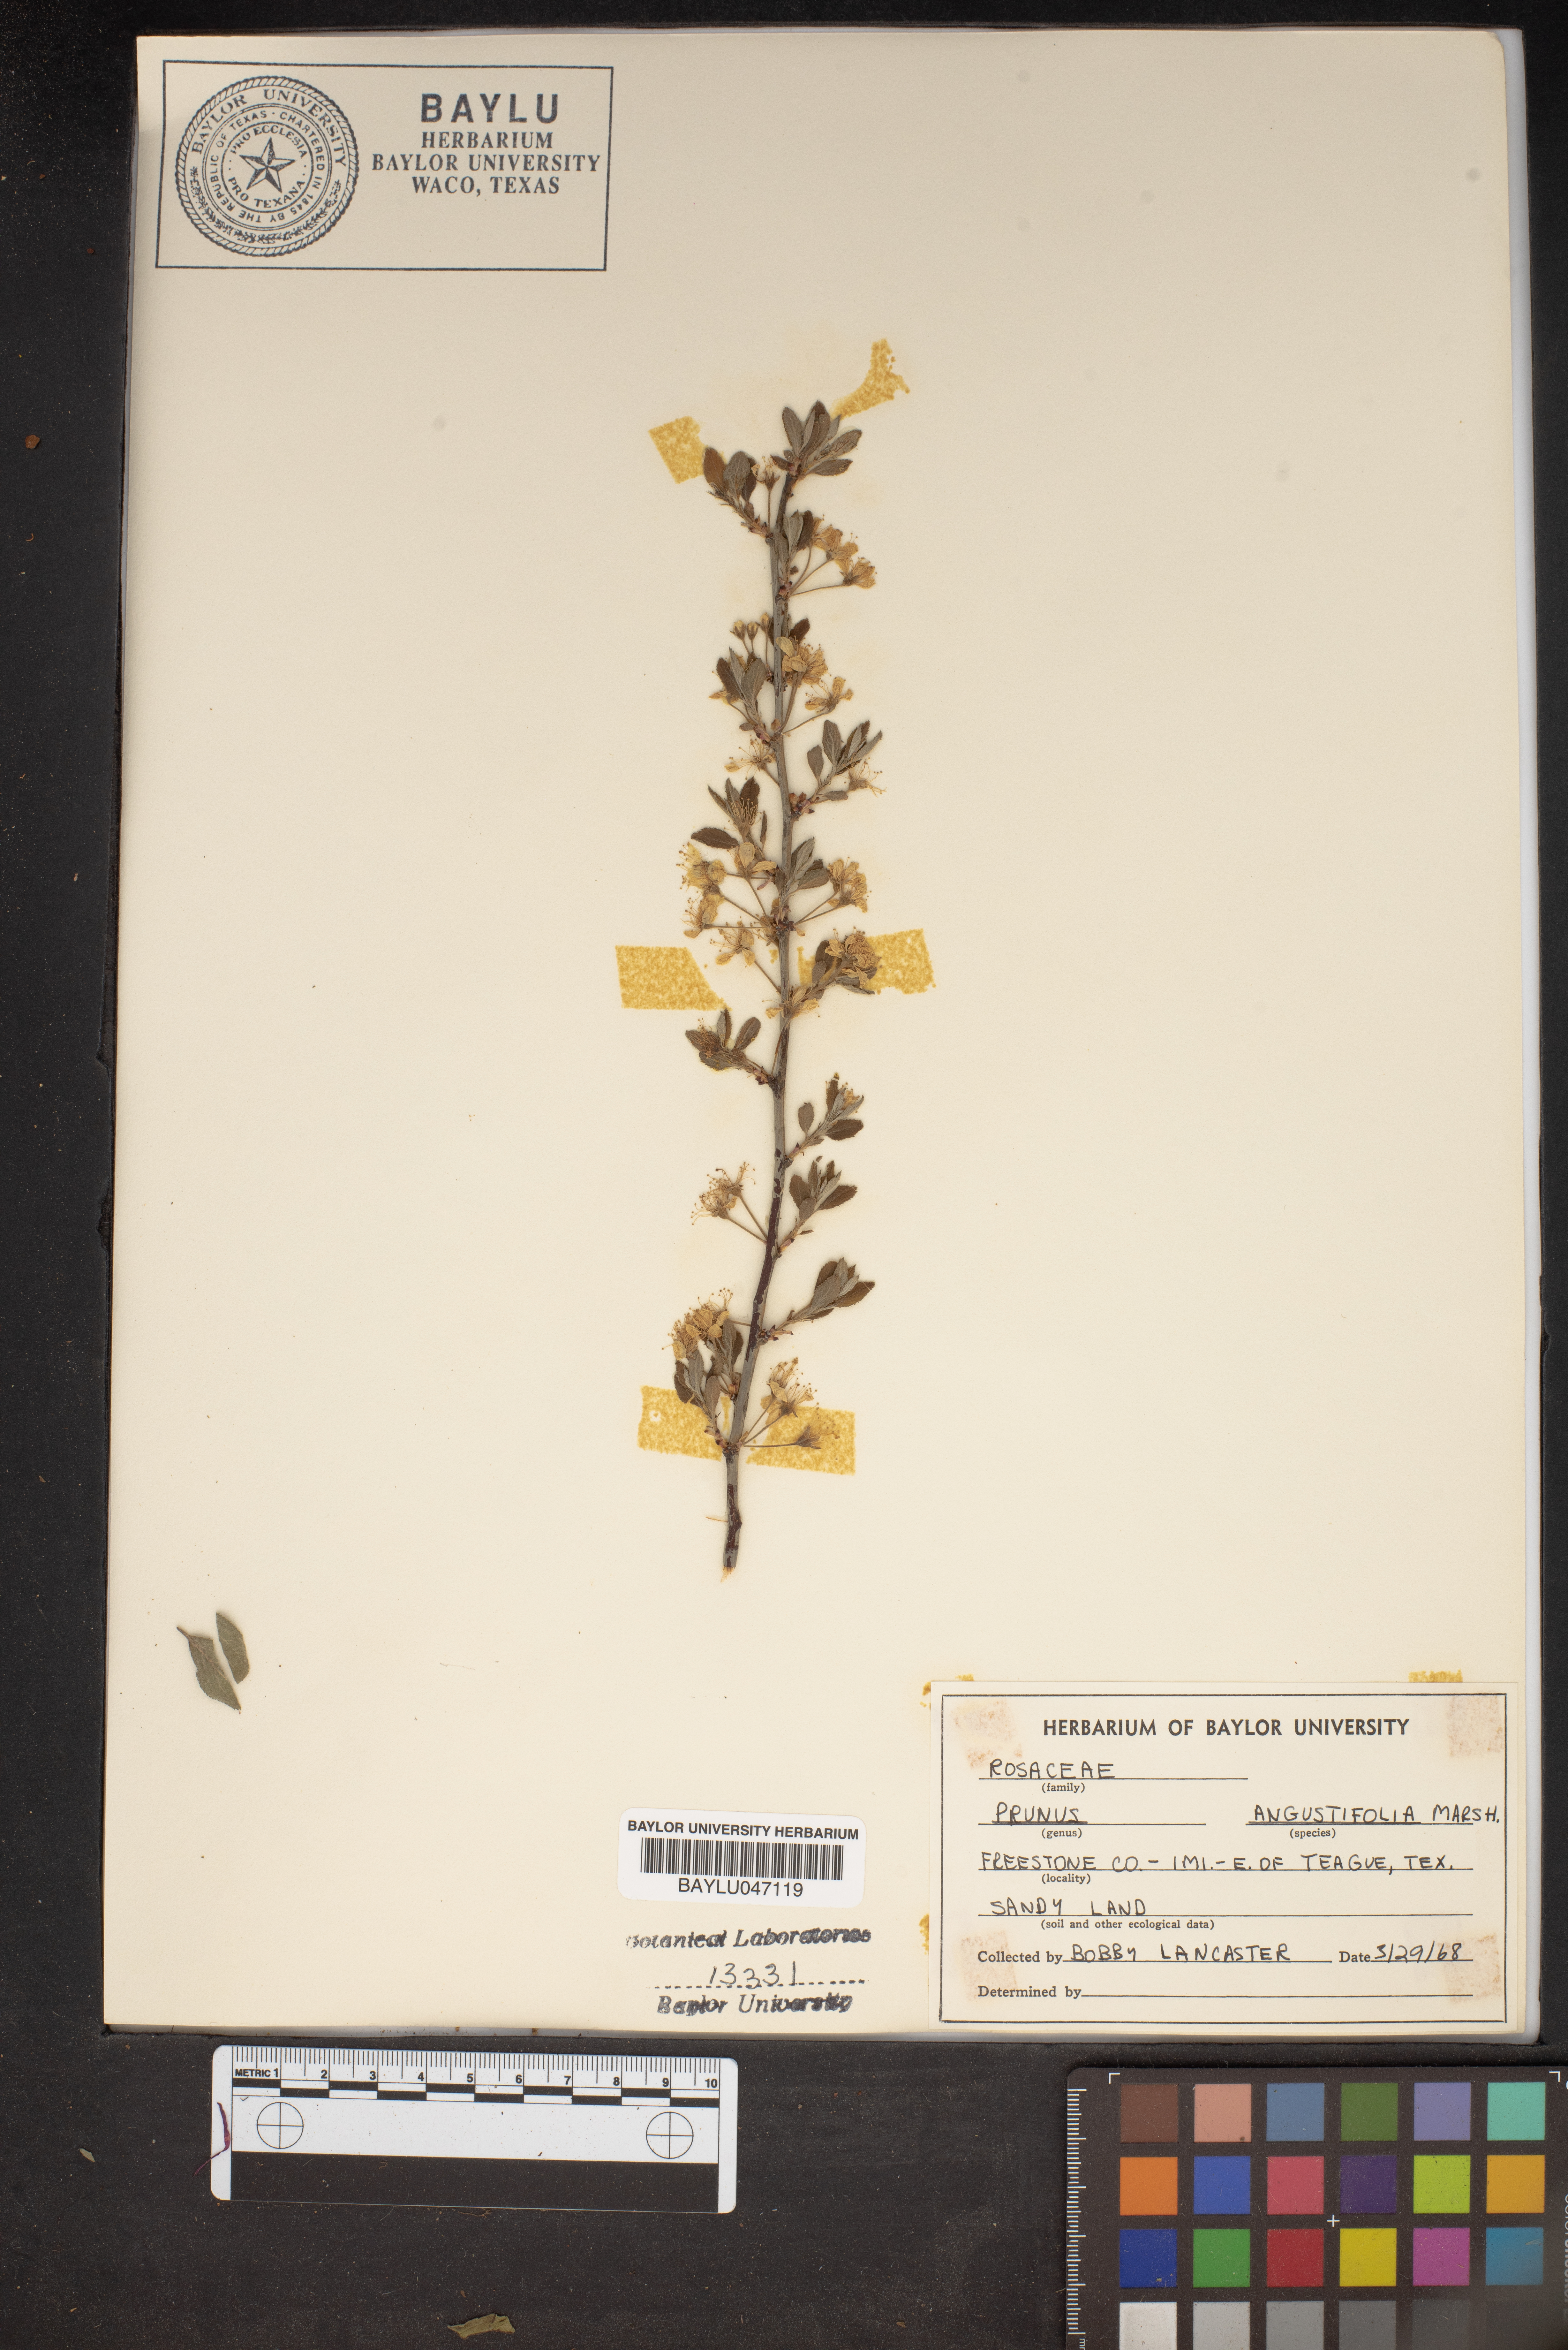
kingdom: Plantae
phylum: Tracheophyta
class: Magnoliopsida
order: Rosales
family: Rosaceae
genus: Prunus
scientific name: Prunus angustifolia
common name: Cherokee plum
